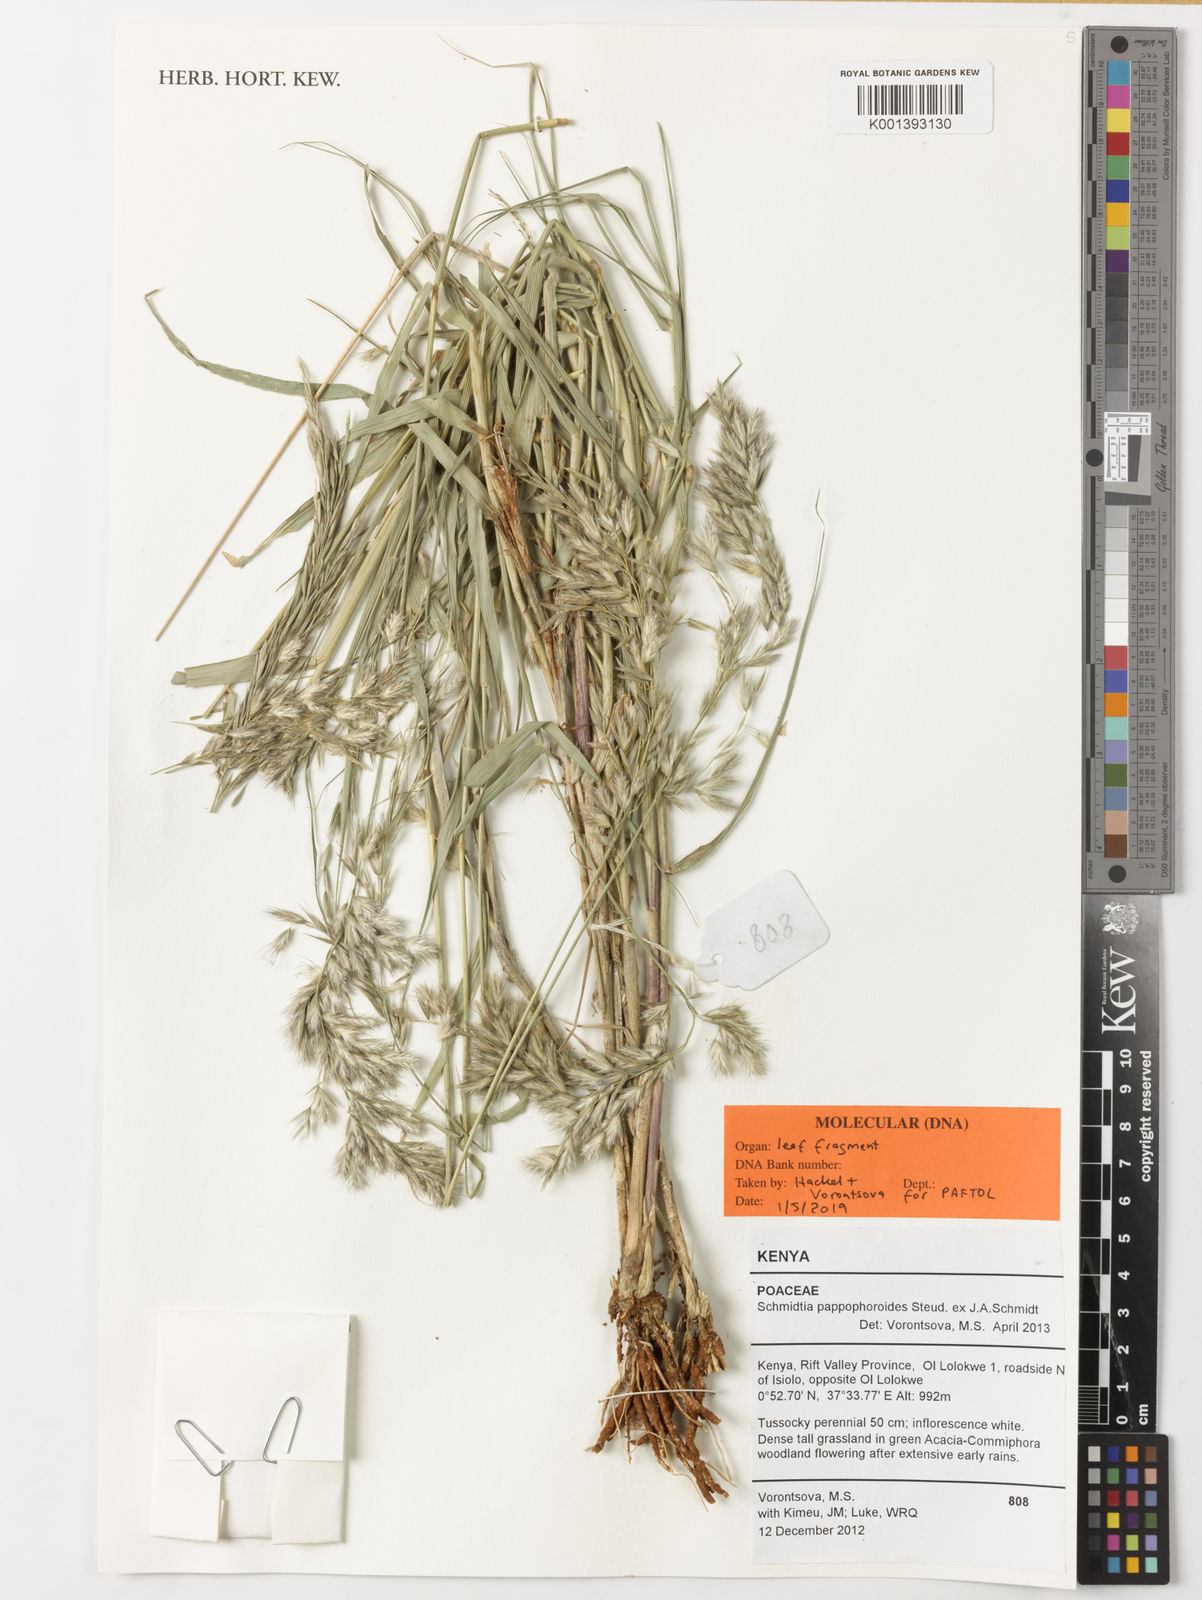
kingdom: Plantae
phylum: Tracheophyta
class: Liliopsida
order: Poales
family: Poaceae
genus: Schmidtia
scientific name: Schmidtia pappophoroides
